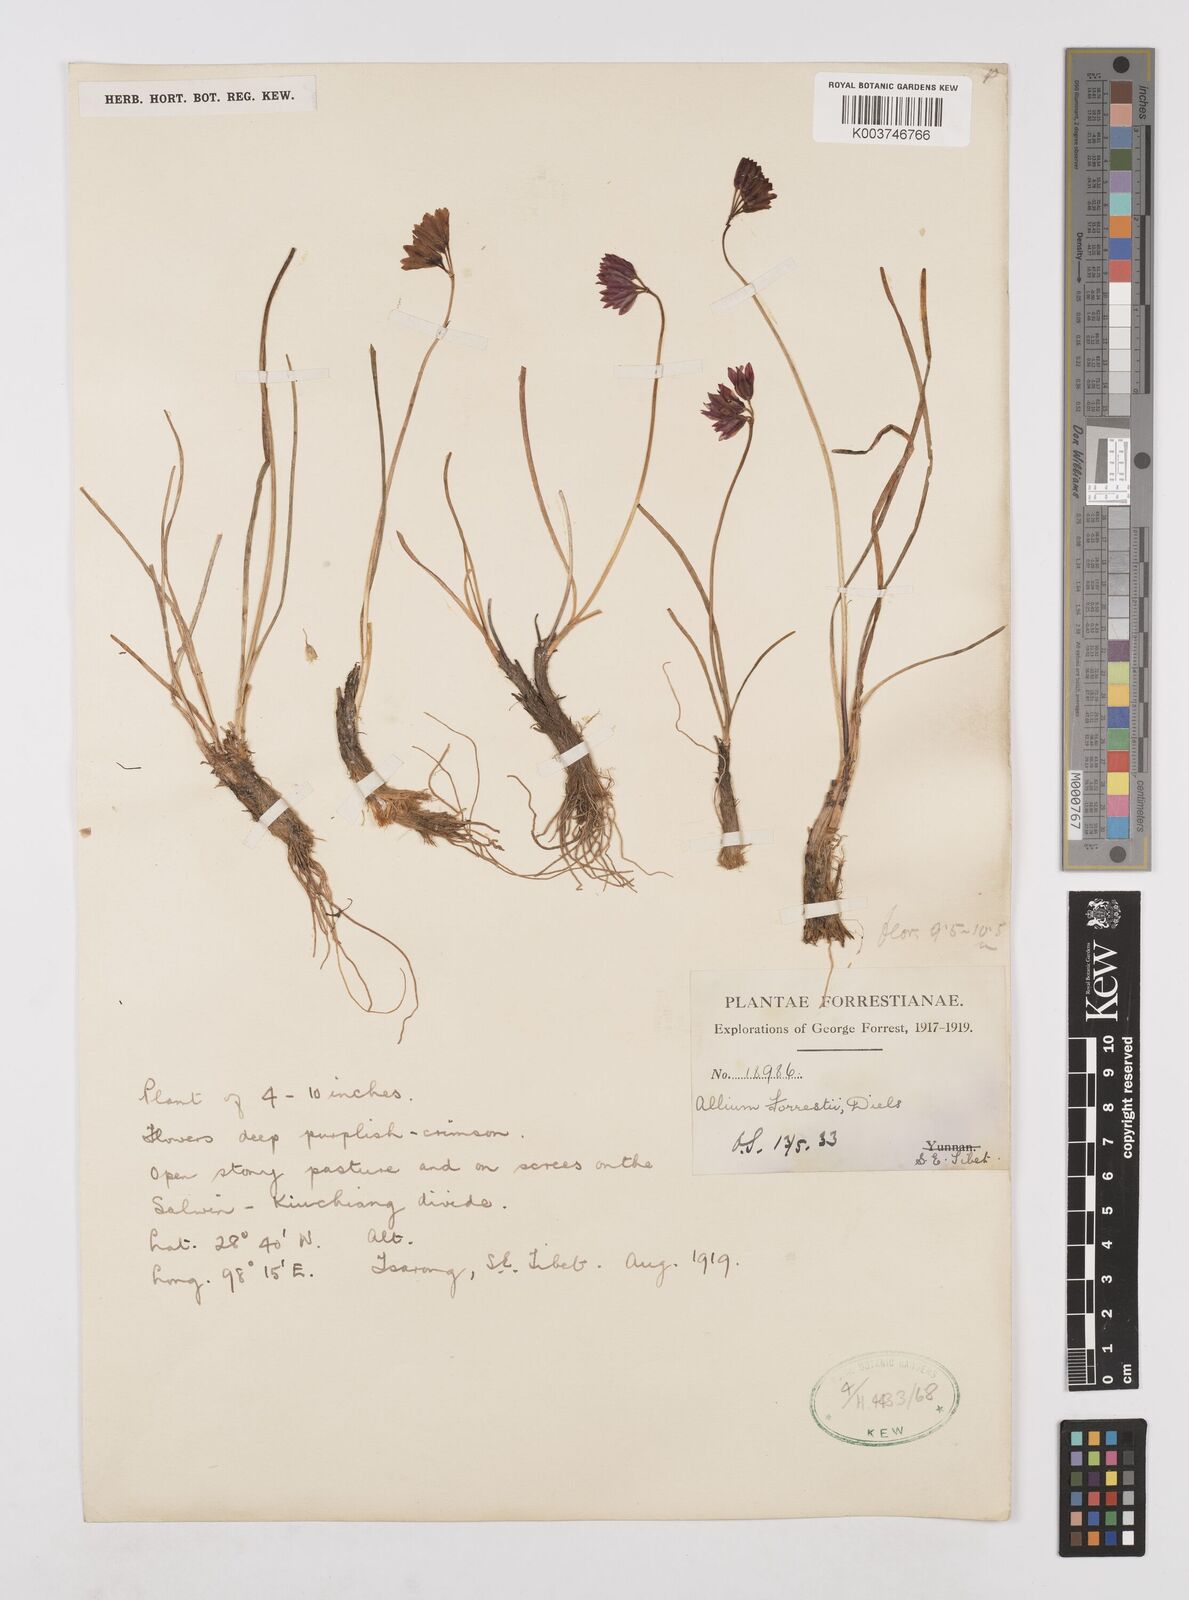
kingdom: Plantae
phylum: Tracheophyta
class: Liliopsida
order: Asparagales
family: Amaryllidaceae
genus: Allium
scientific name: Allium forrestii
